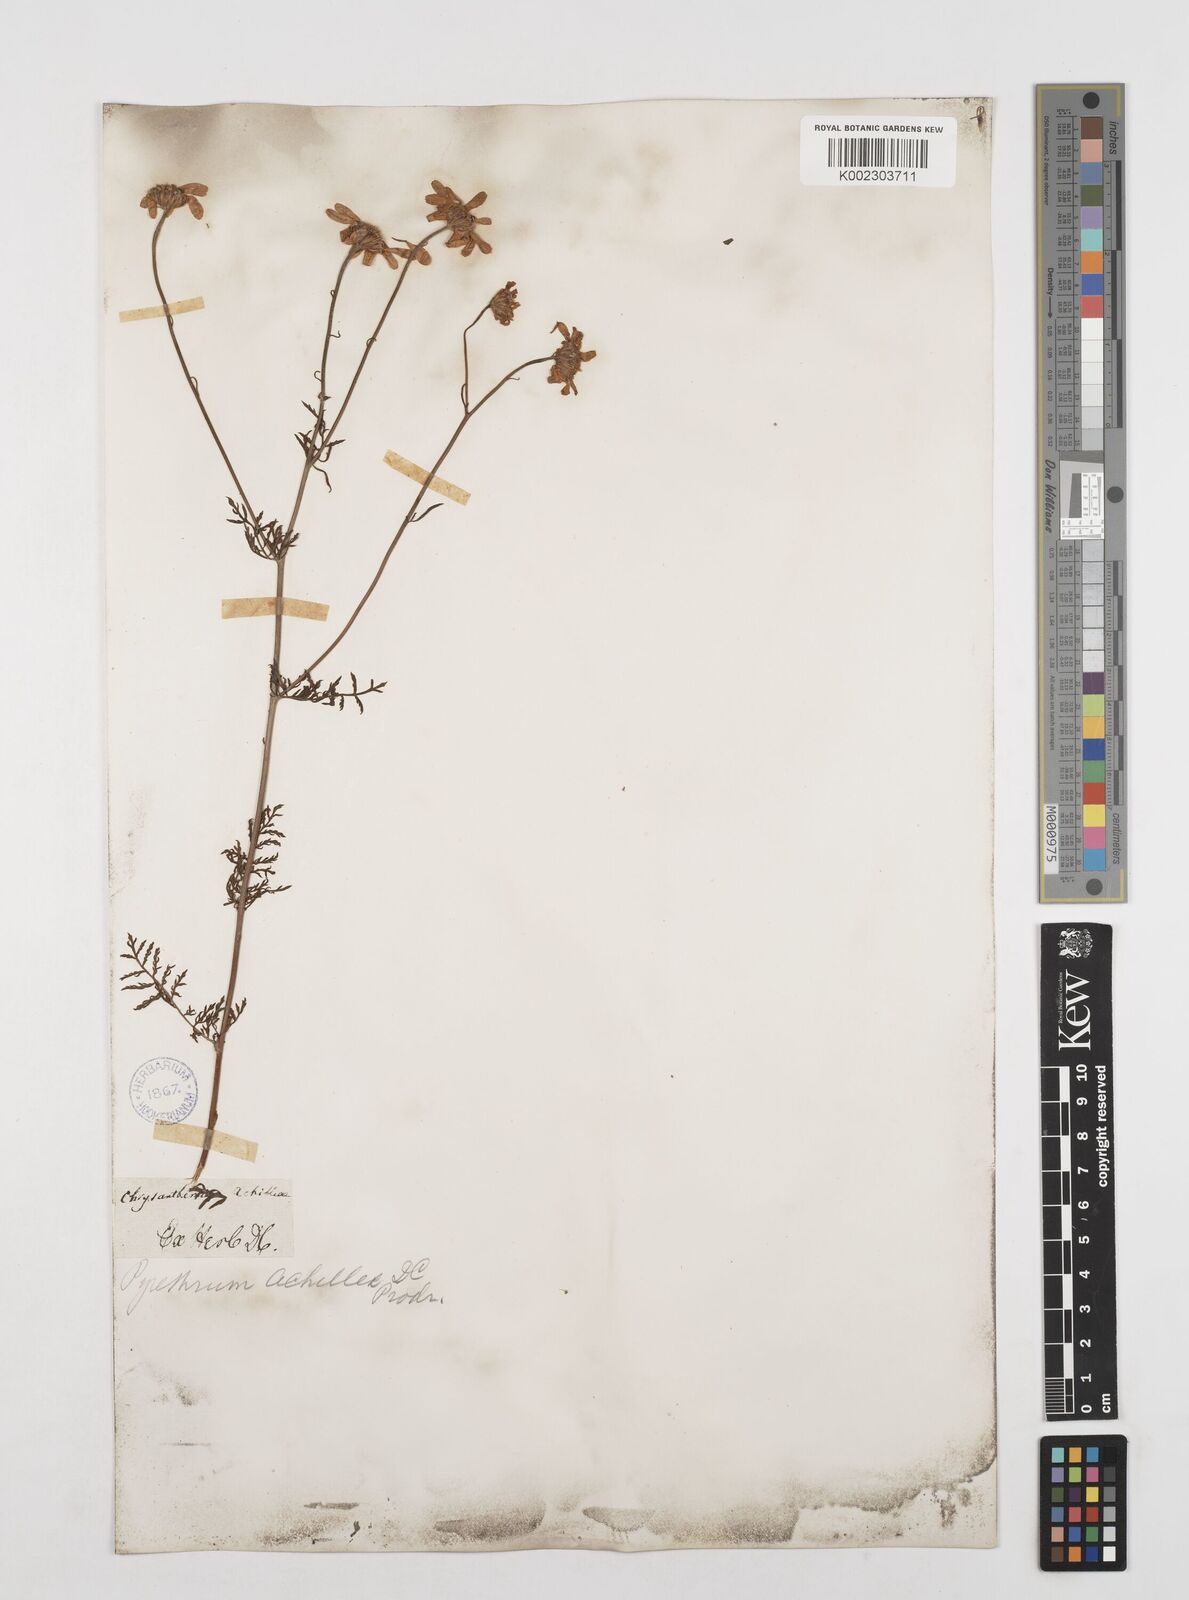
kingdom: Plantae
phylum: Tracheophyta
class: Magnoliopsida
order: Asterales
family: Asteraceae
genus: Tanacetum
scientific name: Tanacetum achilleae
